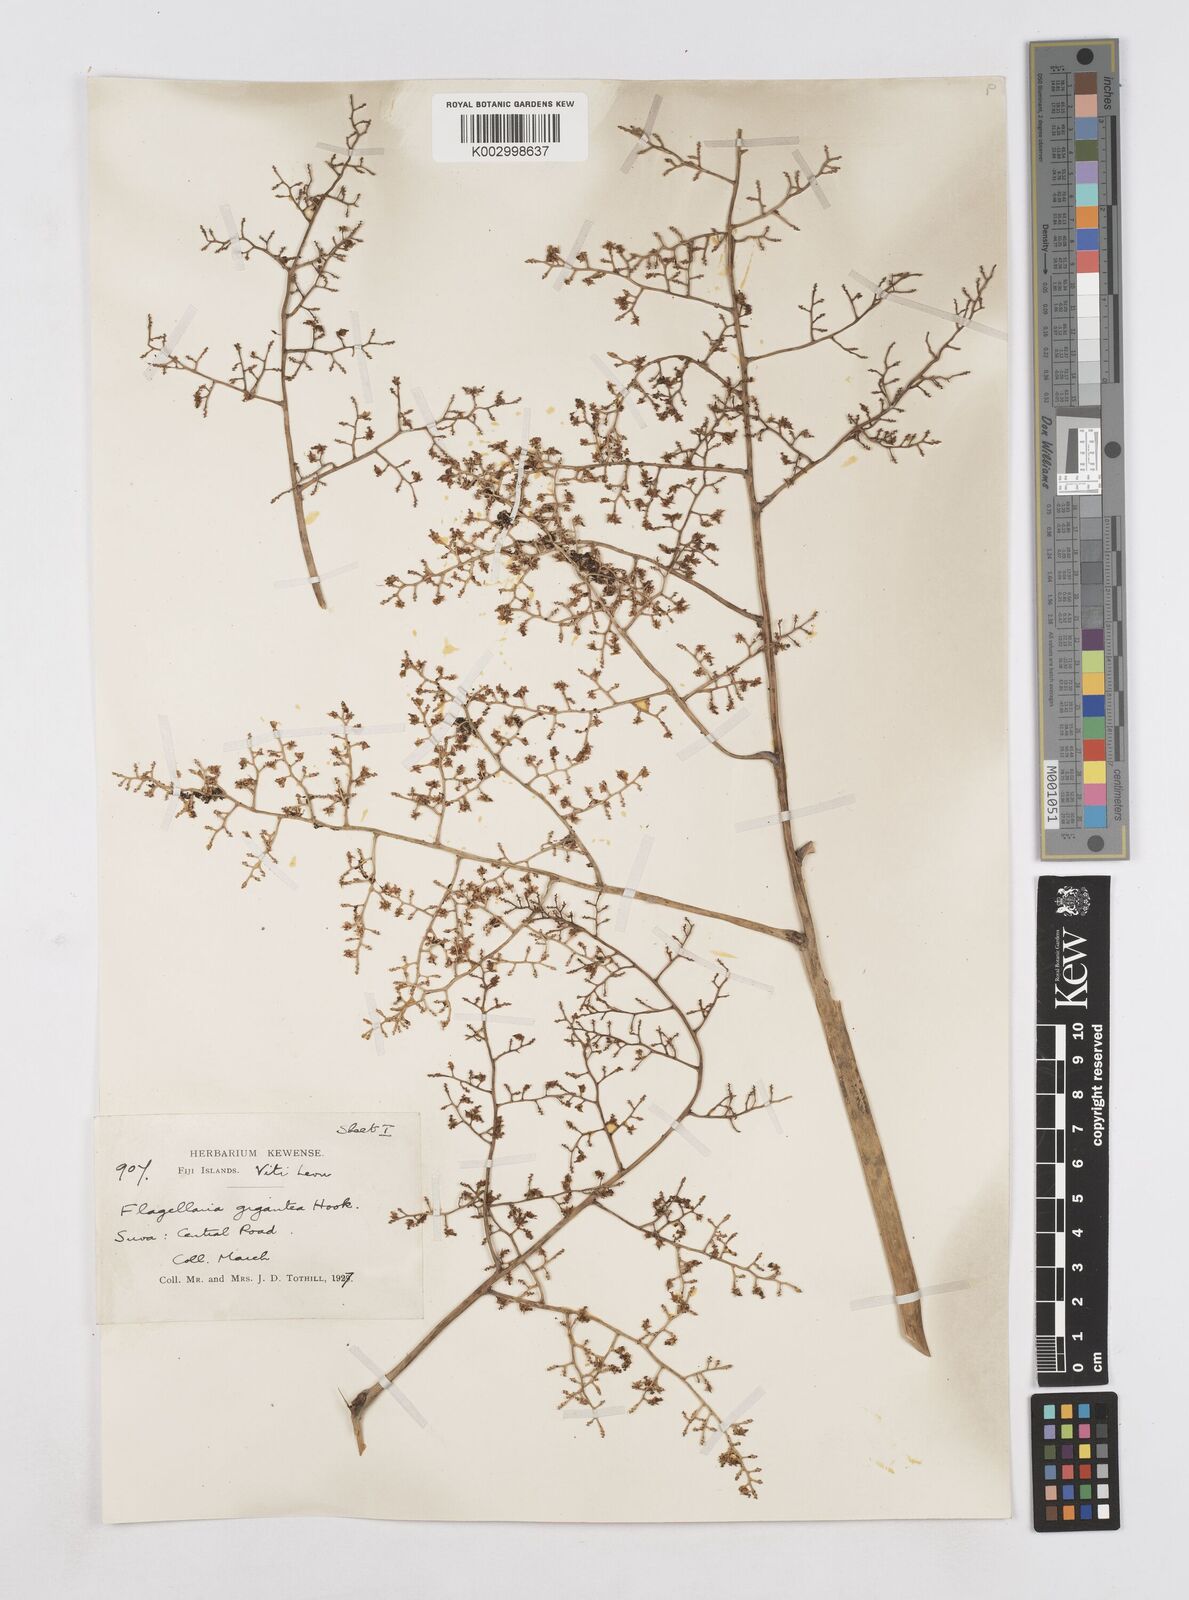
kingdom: Plantae
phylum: Tracheophyta
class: Liliopsida
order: Poales
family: Flagellariaceae
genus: Flagellaria
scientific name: Flagellaria gigantea
